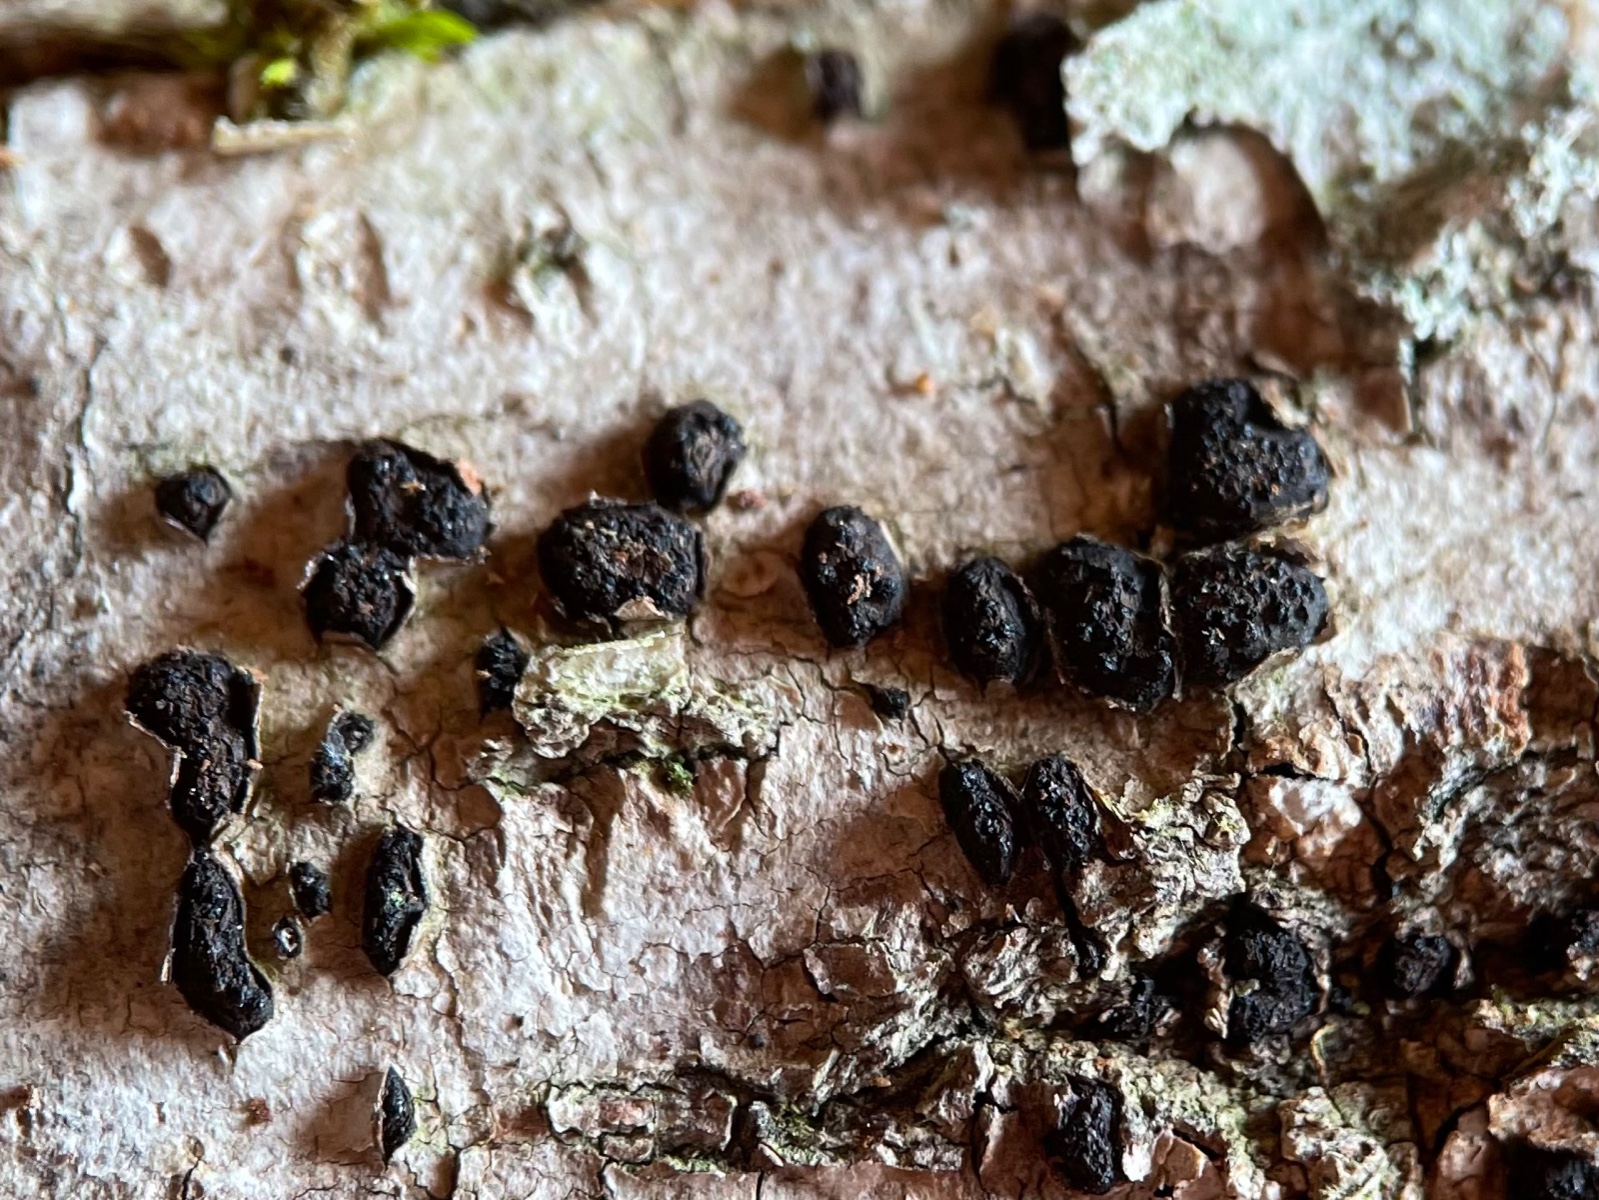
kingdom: Fungi
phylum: Ascomycota
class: Sordariomycetes
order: Xylariales
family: Diatrypaceae
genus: Diatrypella
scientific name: Diatrypella quercina
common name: ege-kulskorpe
